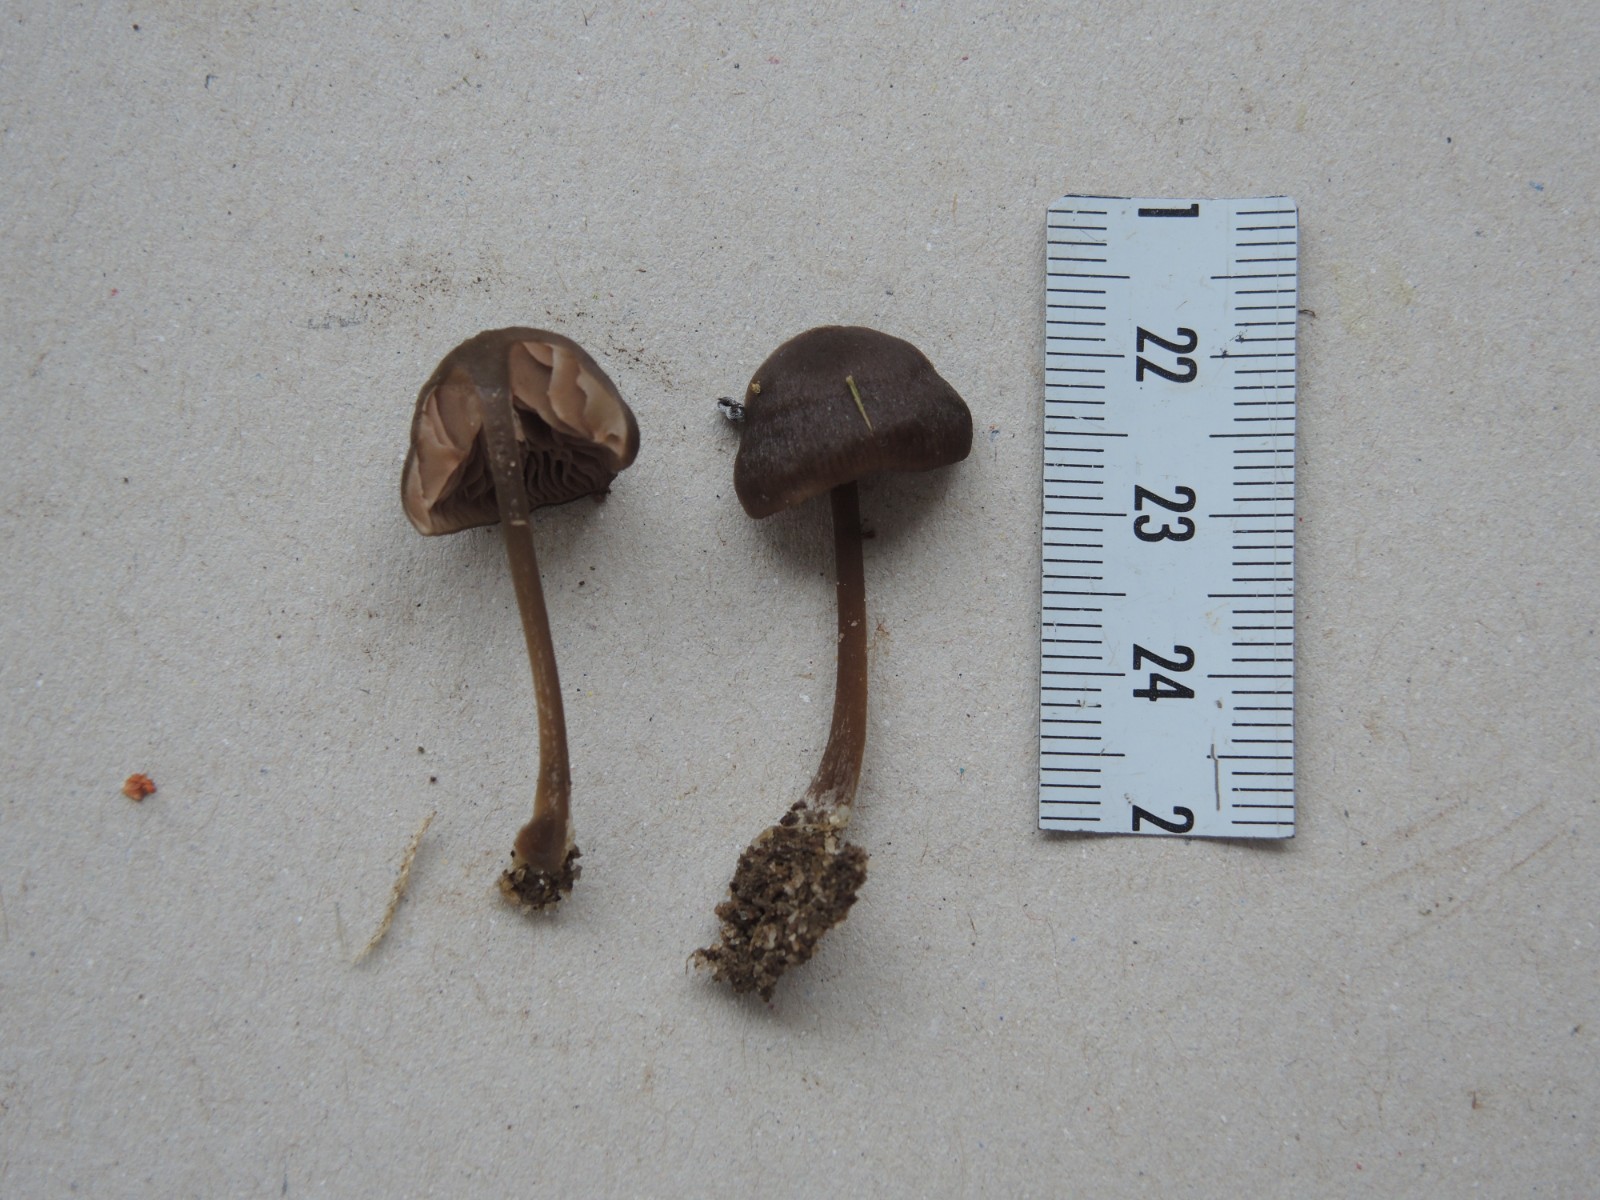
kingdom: Fungi
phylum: Basidiomycota
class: Agaricomycetes
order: Agaricales
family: Entolomataceae
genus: Entoloma
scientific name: Entoloma clandestinum
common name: tykbladet rødblad
